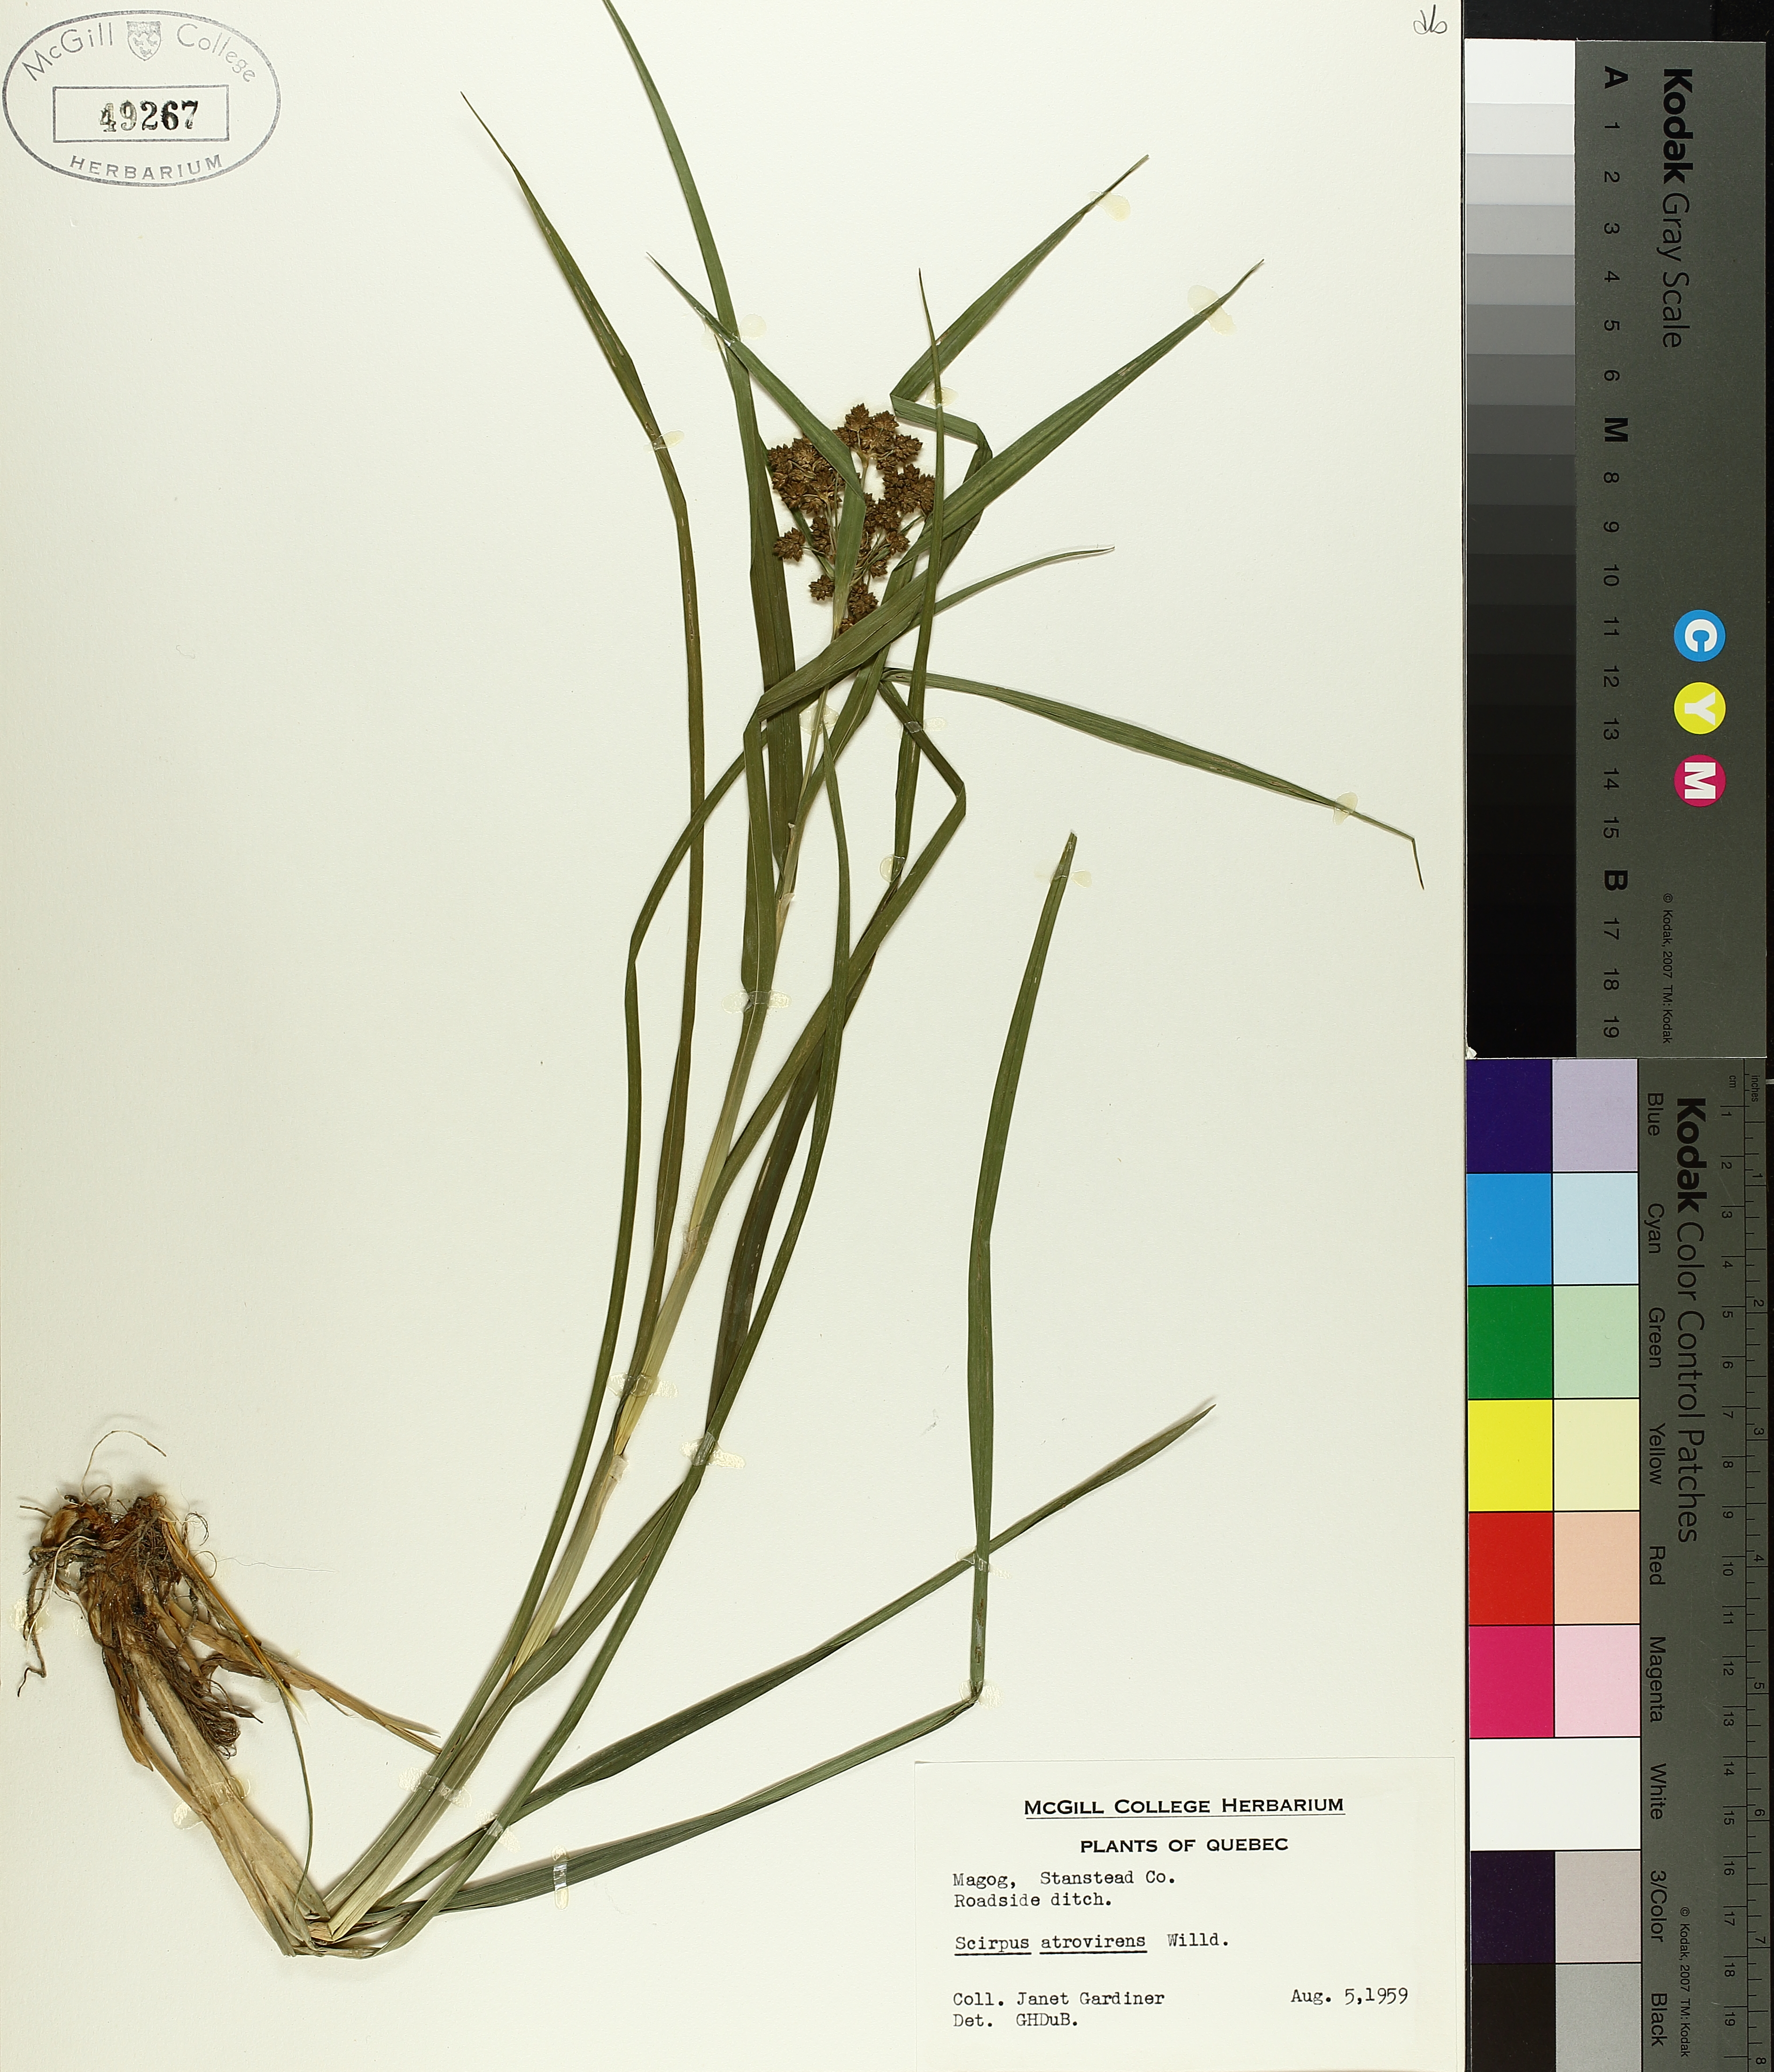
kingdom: Plantae
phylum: Tracheophyta
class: Liliopsida
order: Poales
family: Cyperaceae
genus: Scirpus
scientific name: Scirpus atrovirens
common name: Black bulrush
